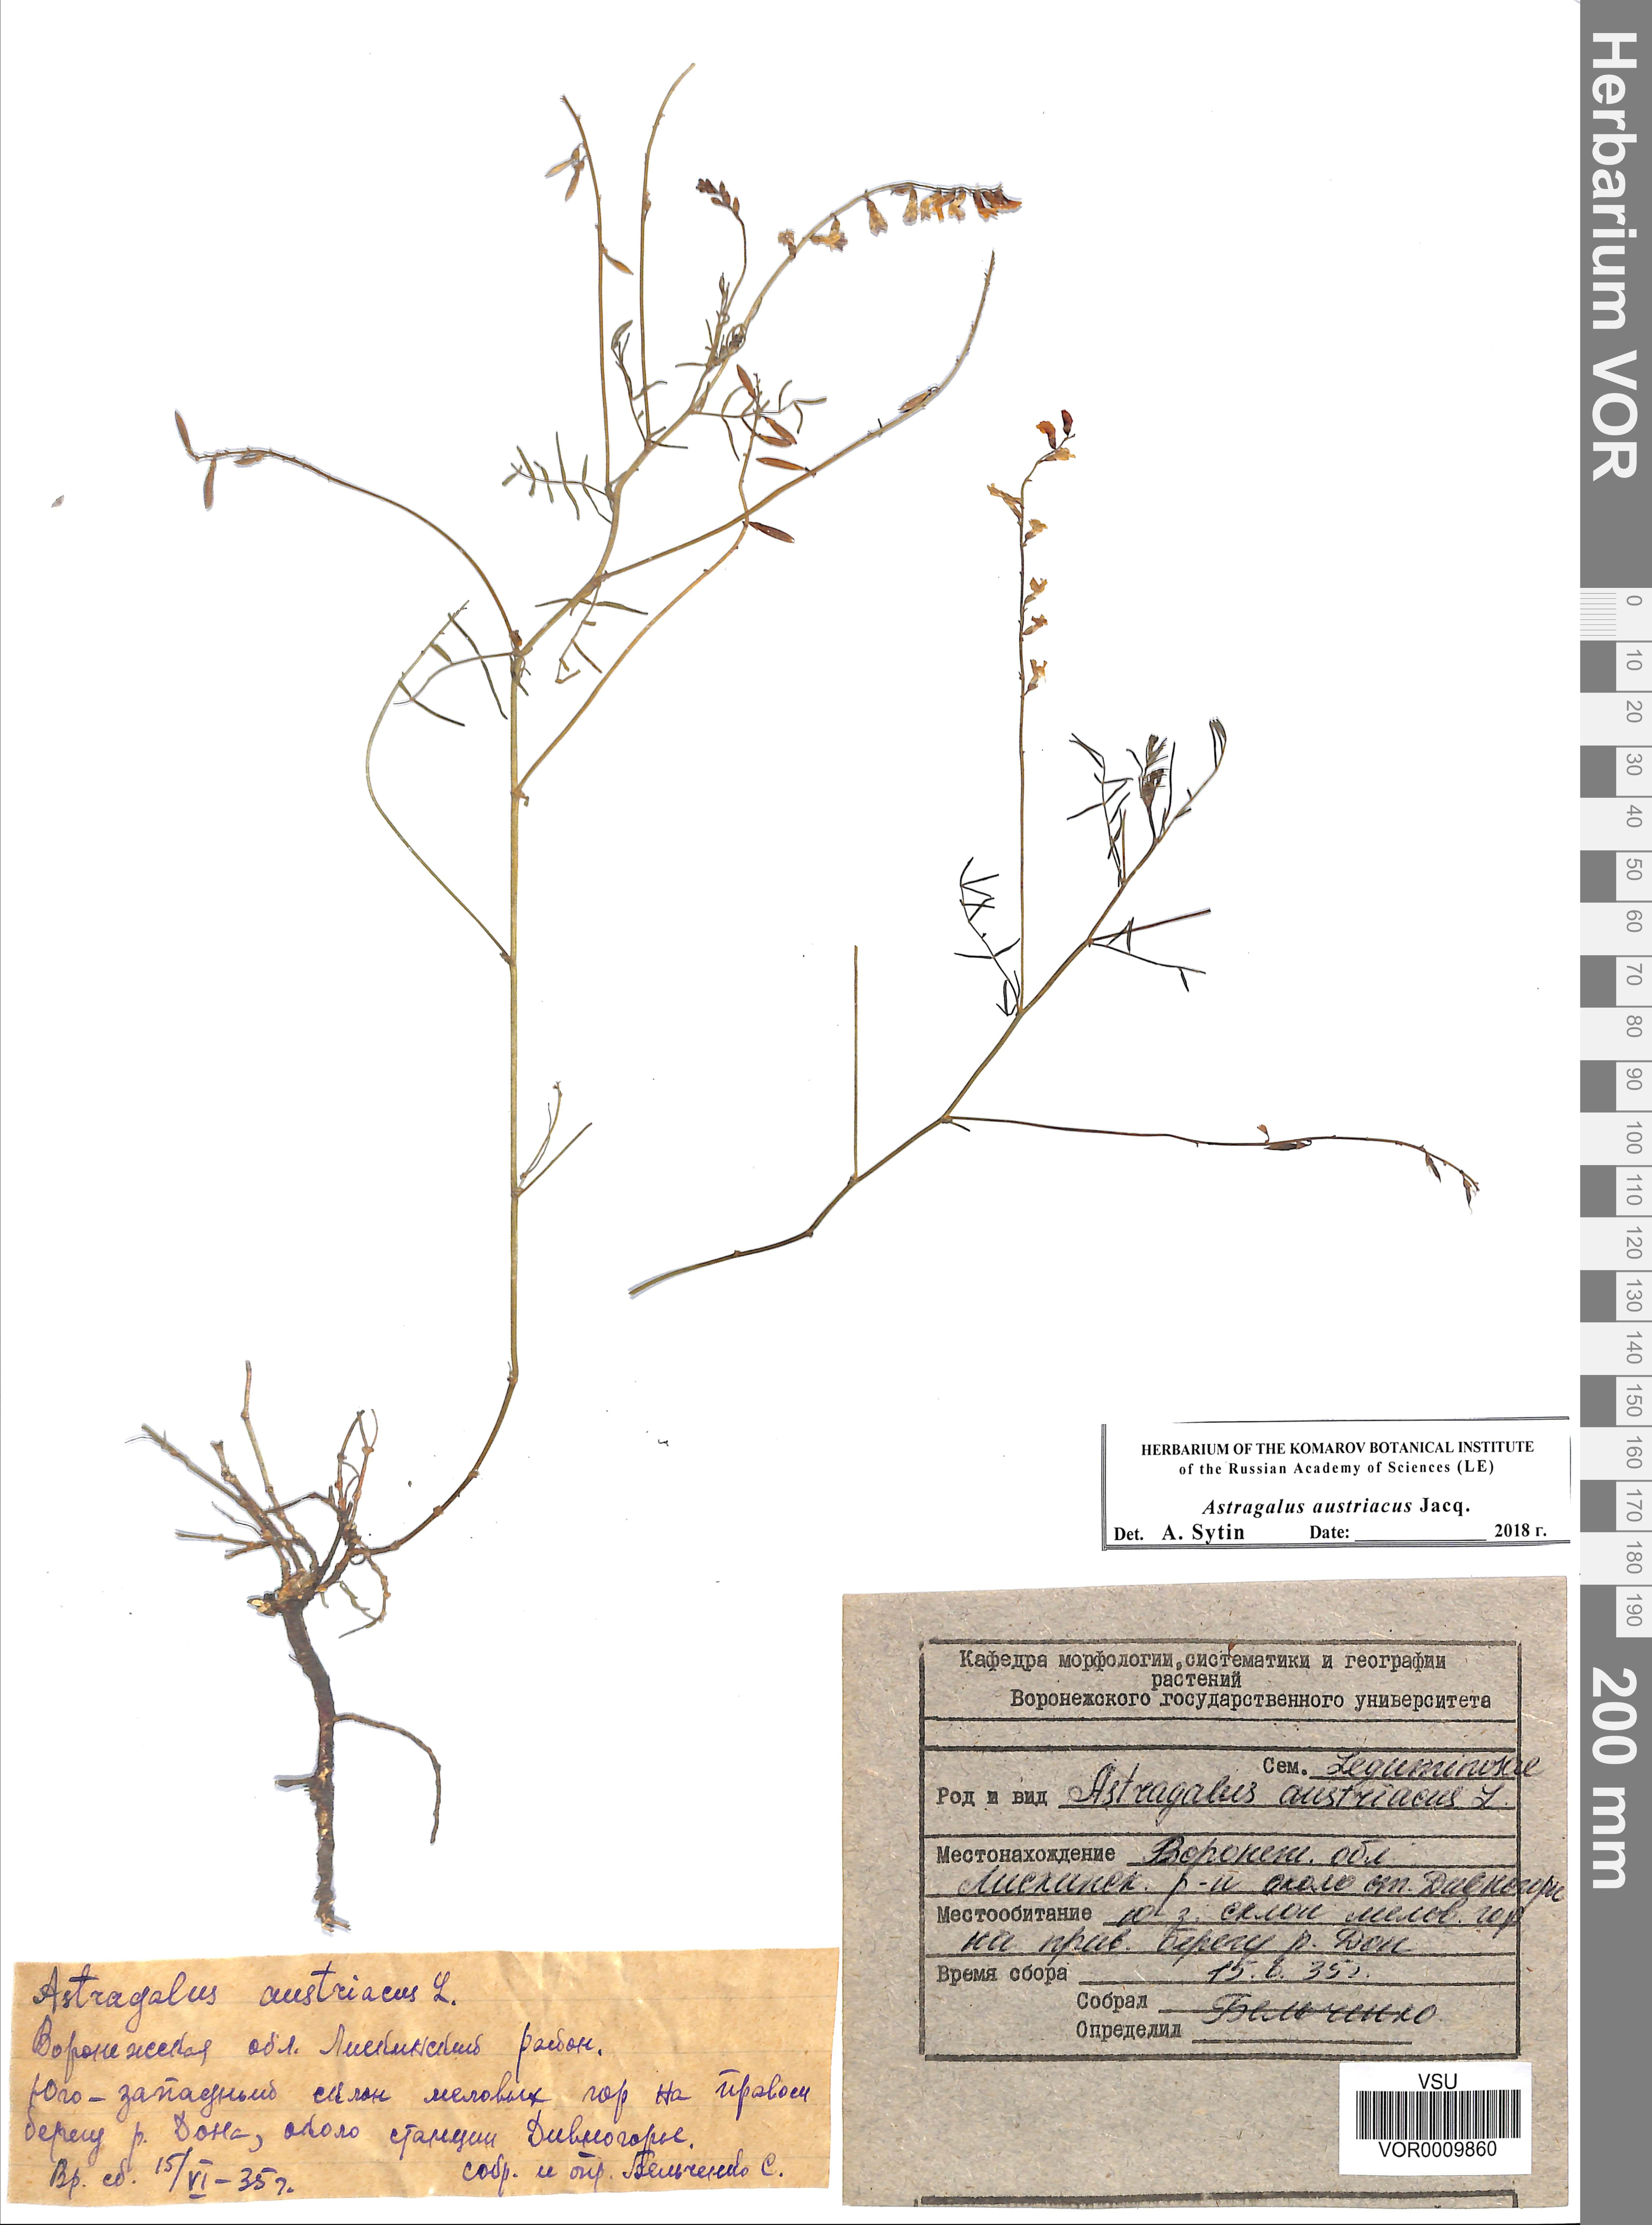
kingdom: Plantae
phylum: Tracheophyta
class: Magnoliopsida
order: Fabales
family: Fabaceae
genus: Astragalus
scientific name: Astragalus austriacus
